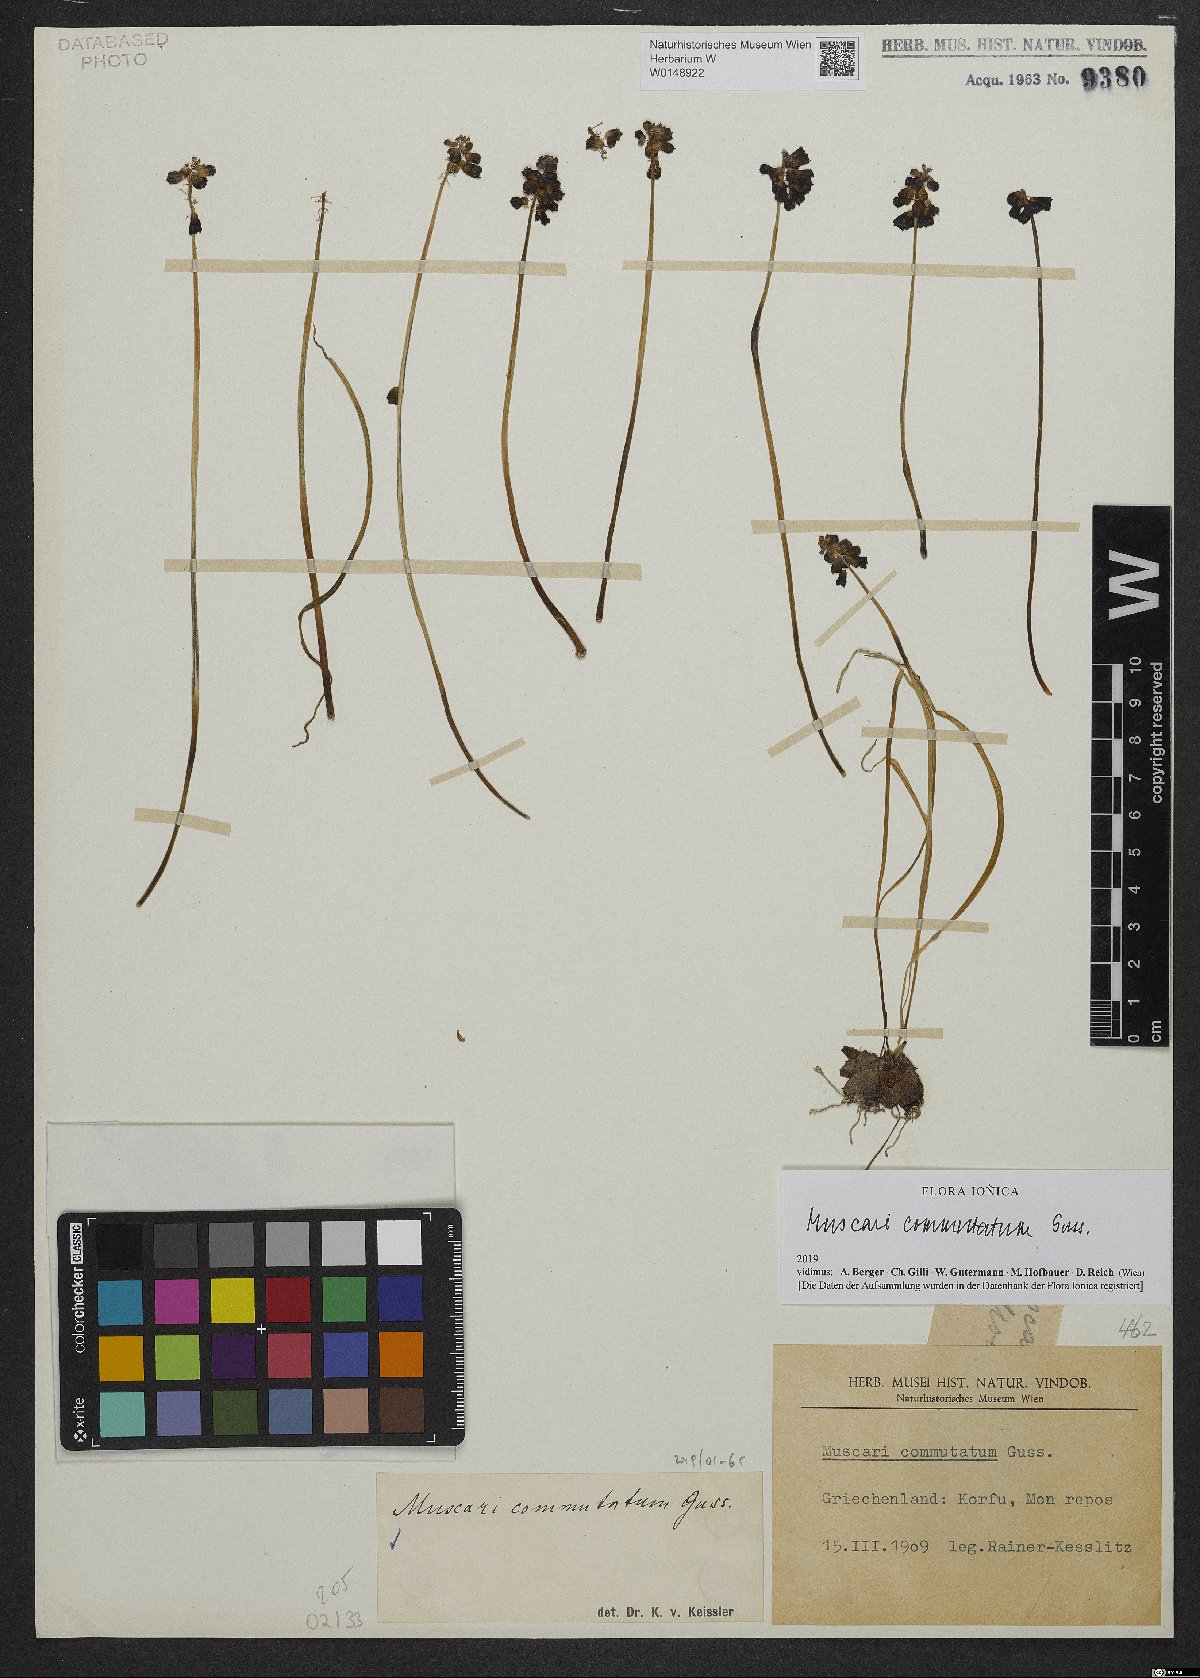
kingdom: Plantae
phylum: Tracheophyta
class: Liliopsida
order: Asparagales
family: Asparagaceae
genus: Muscari
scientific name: Muscari commutatum
